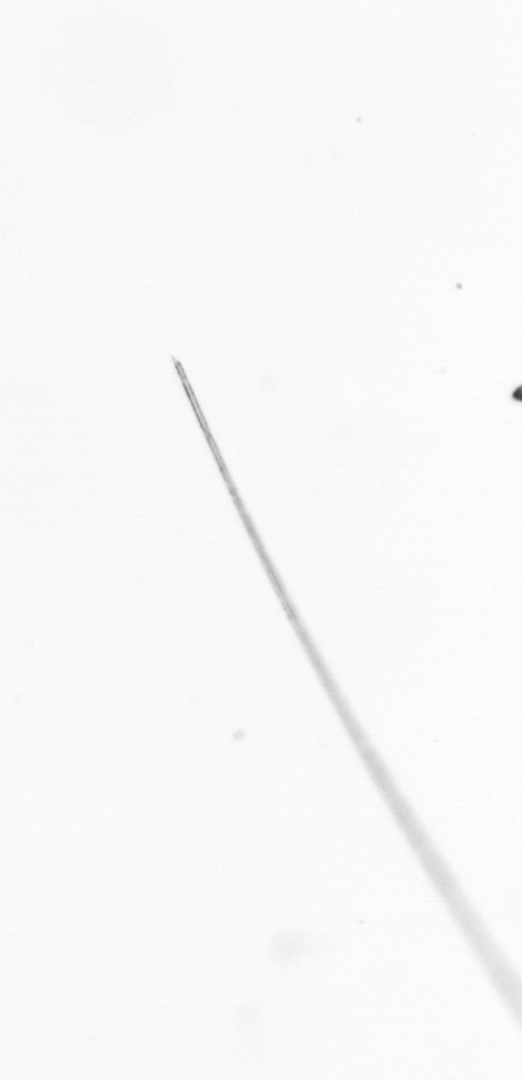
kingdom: Chromista
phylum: Ochrophyta
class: Bacillariophyceae
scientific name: Bacillariophyceae
